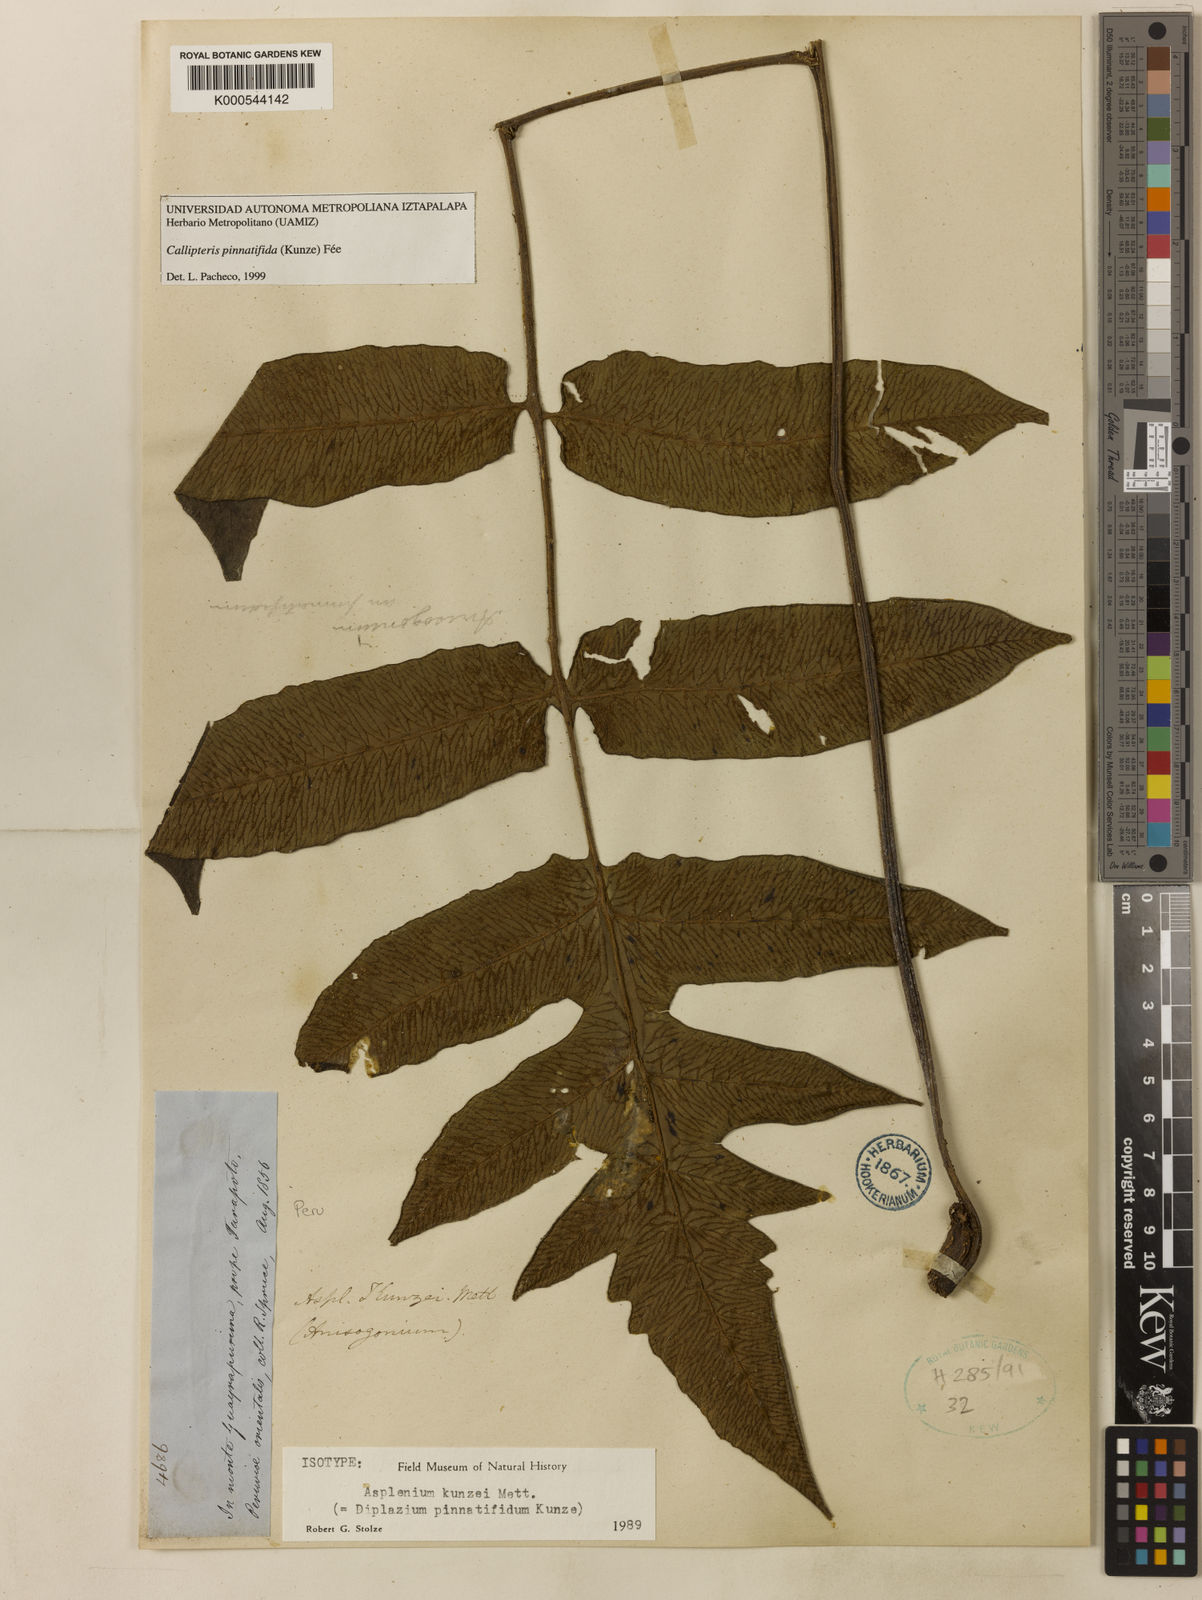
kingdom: Plantae
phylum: Tracheophyta
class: Polypodiopsida
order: Polypodiales
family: Athyriaceae
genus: Diplazium
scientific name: Diplazium pinnatifidum
